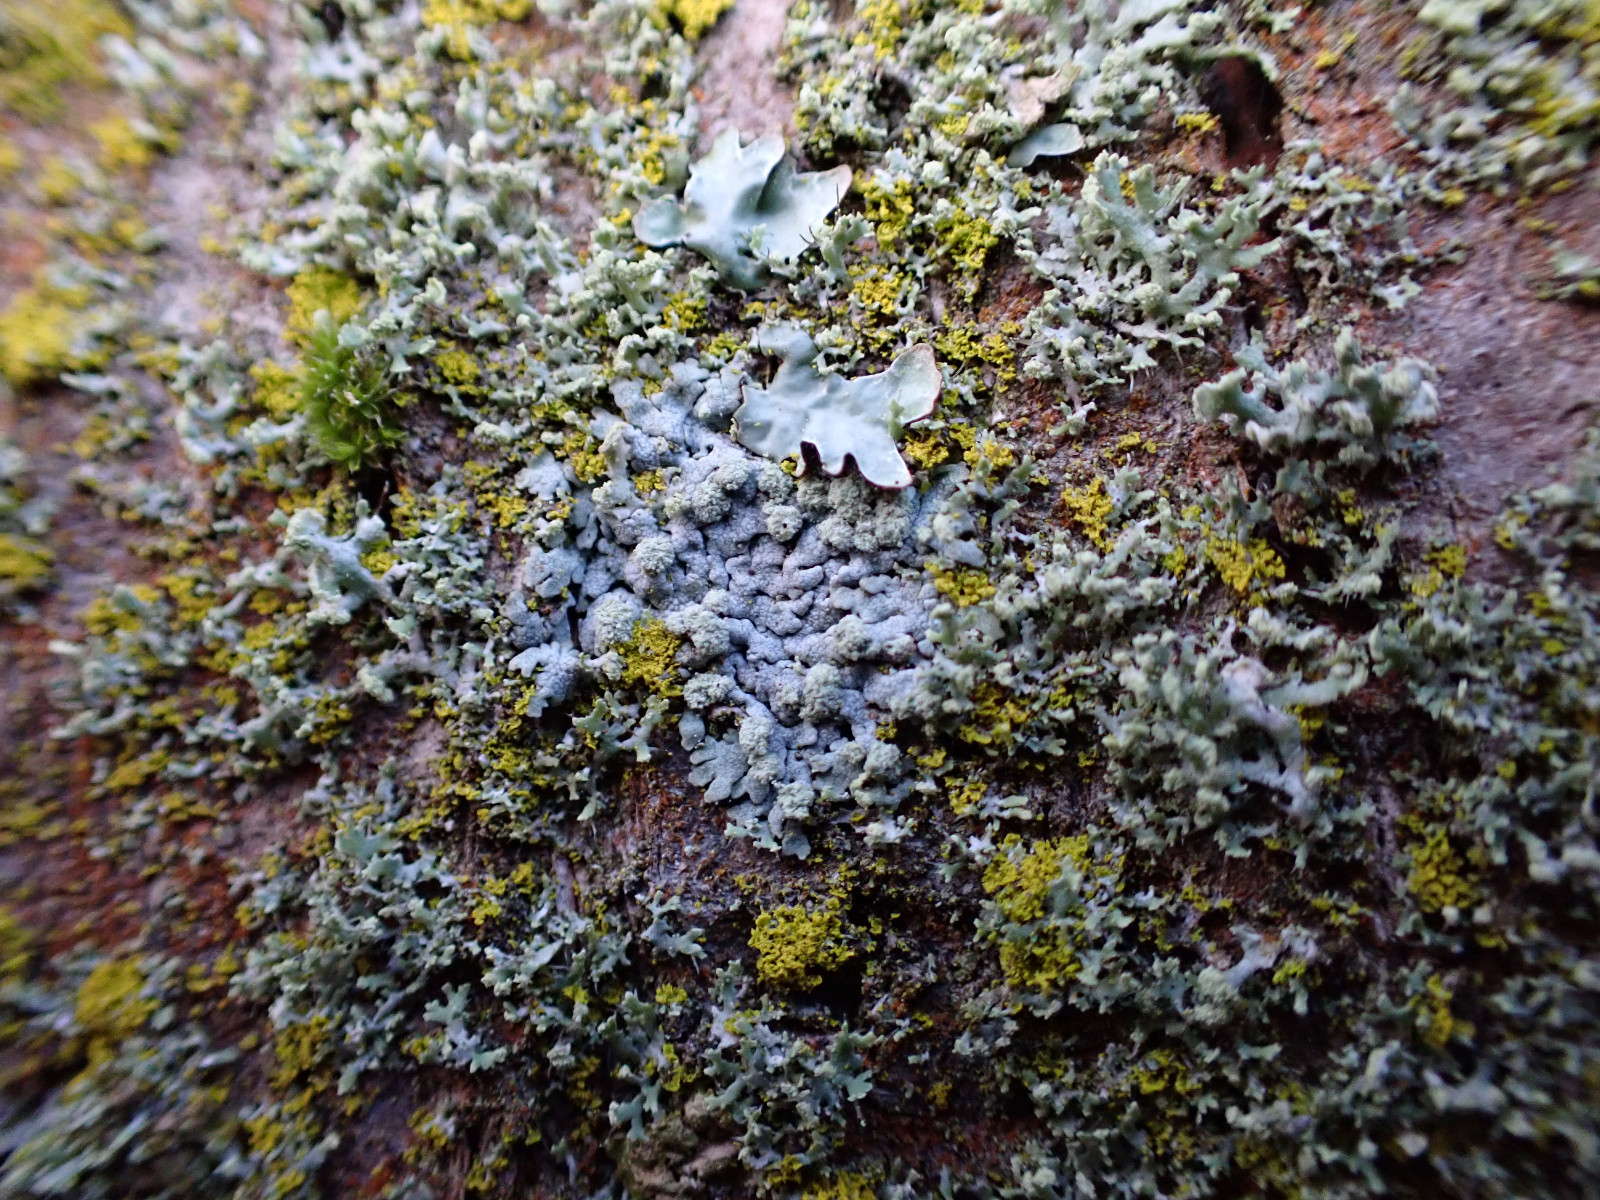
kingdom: Fungi
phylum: Ascomycota
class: Lecanoromycetes
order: Caliciales
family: Physciaceae
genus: Physcia
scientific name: Physcia caesia
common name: blågrå rosetlav
